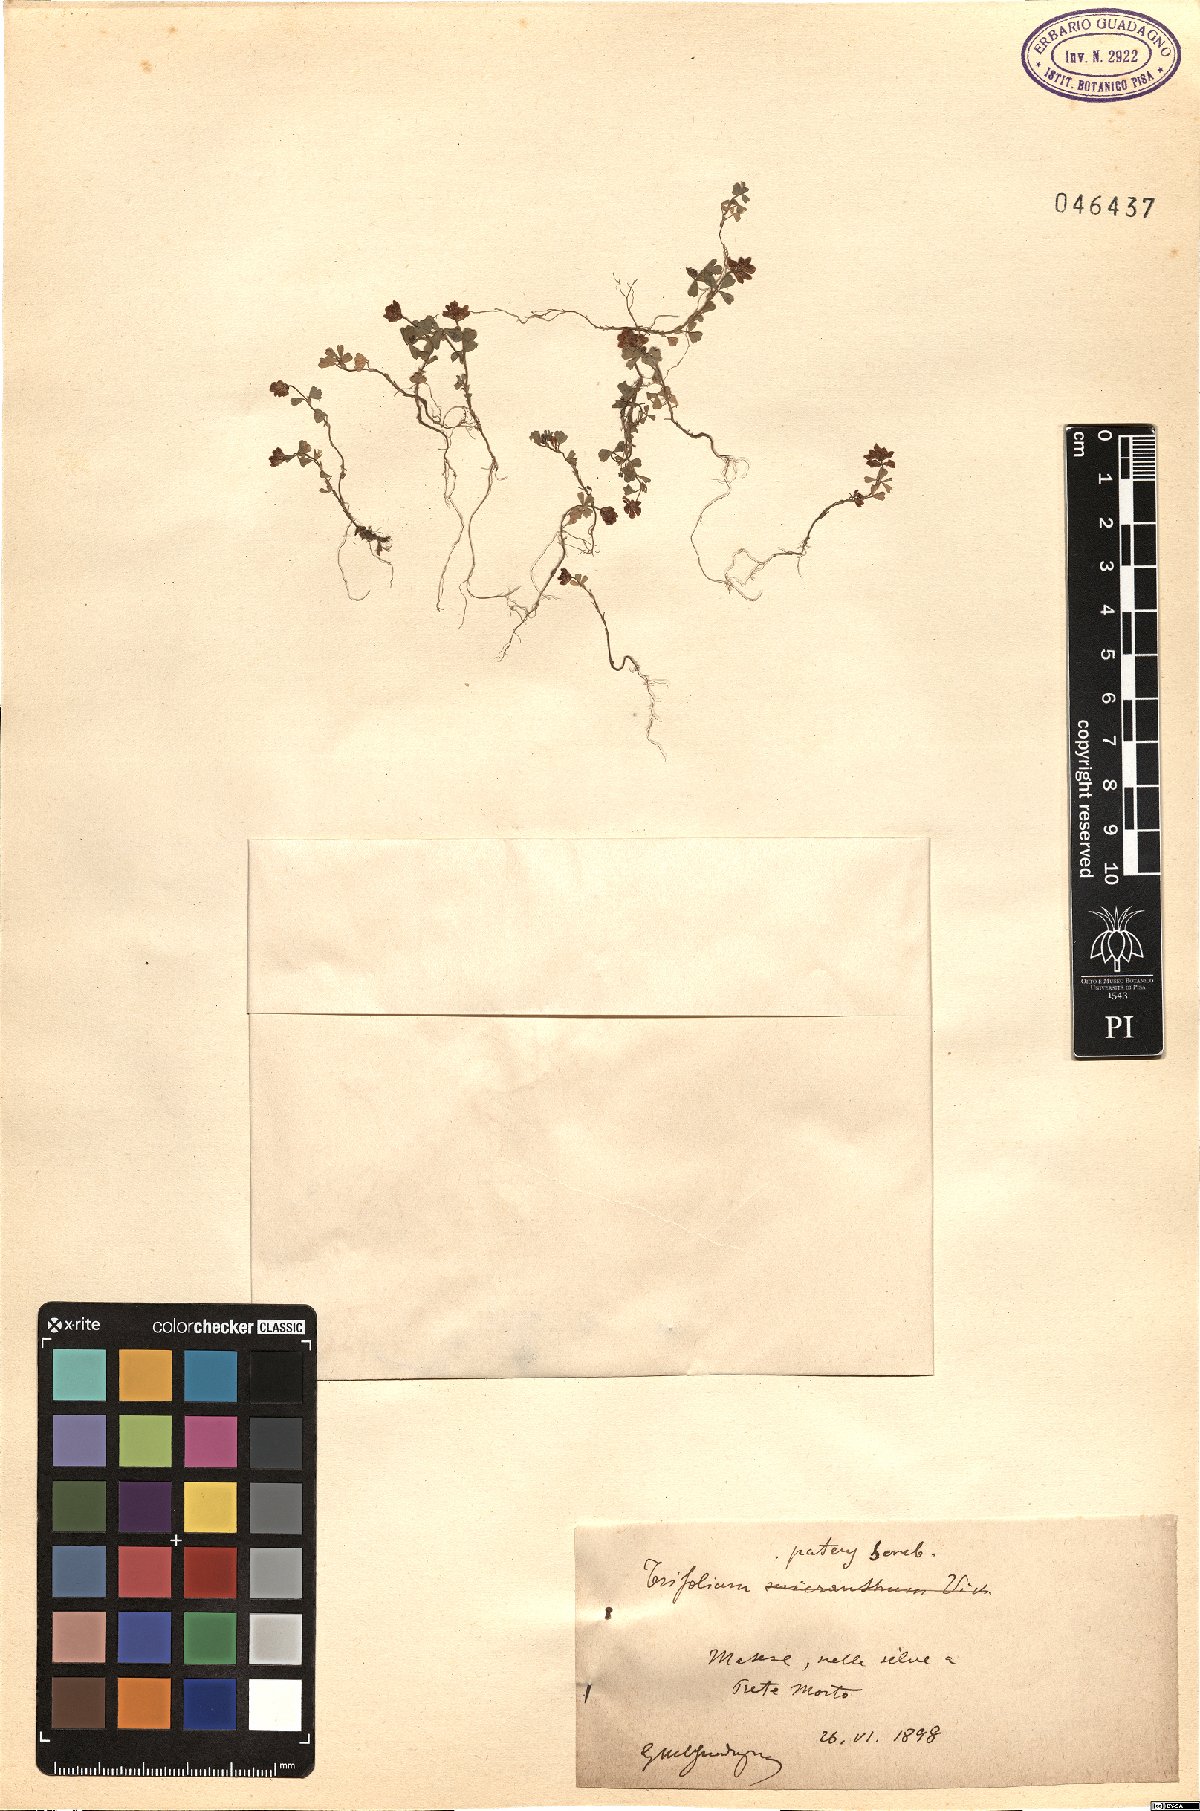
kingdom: Plantae
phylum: Tracheophyta
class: Magnoliopsida
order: Fabales
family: Fabaceae
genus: Trifolium
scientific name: Trifolium patens
